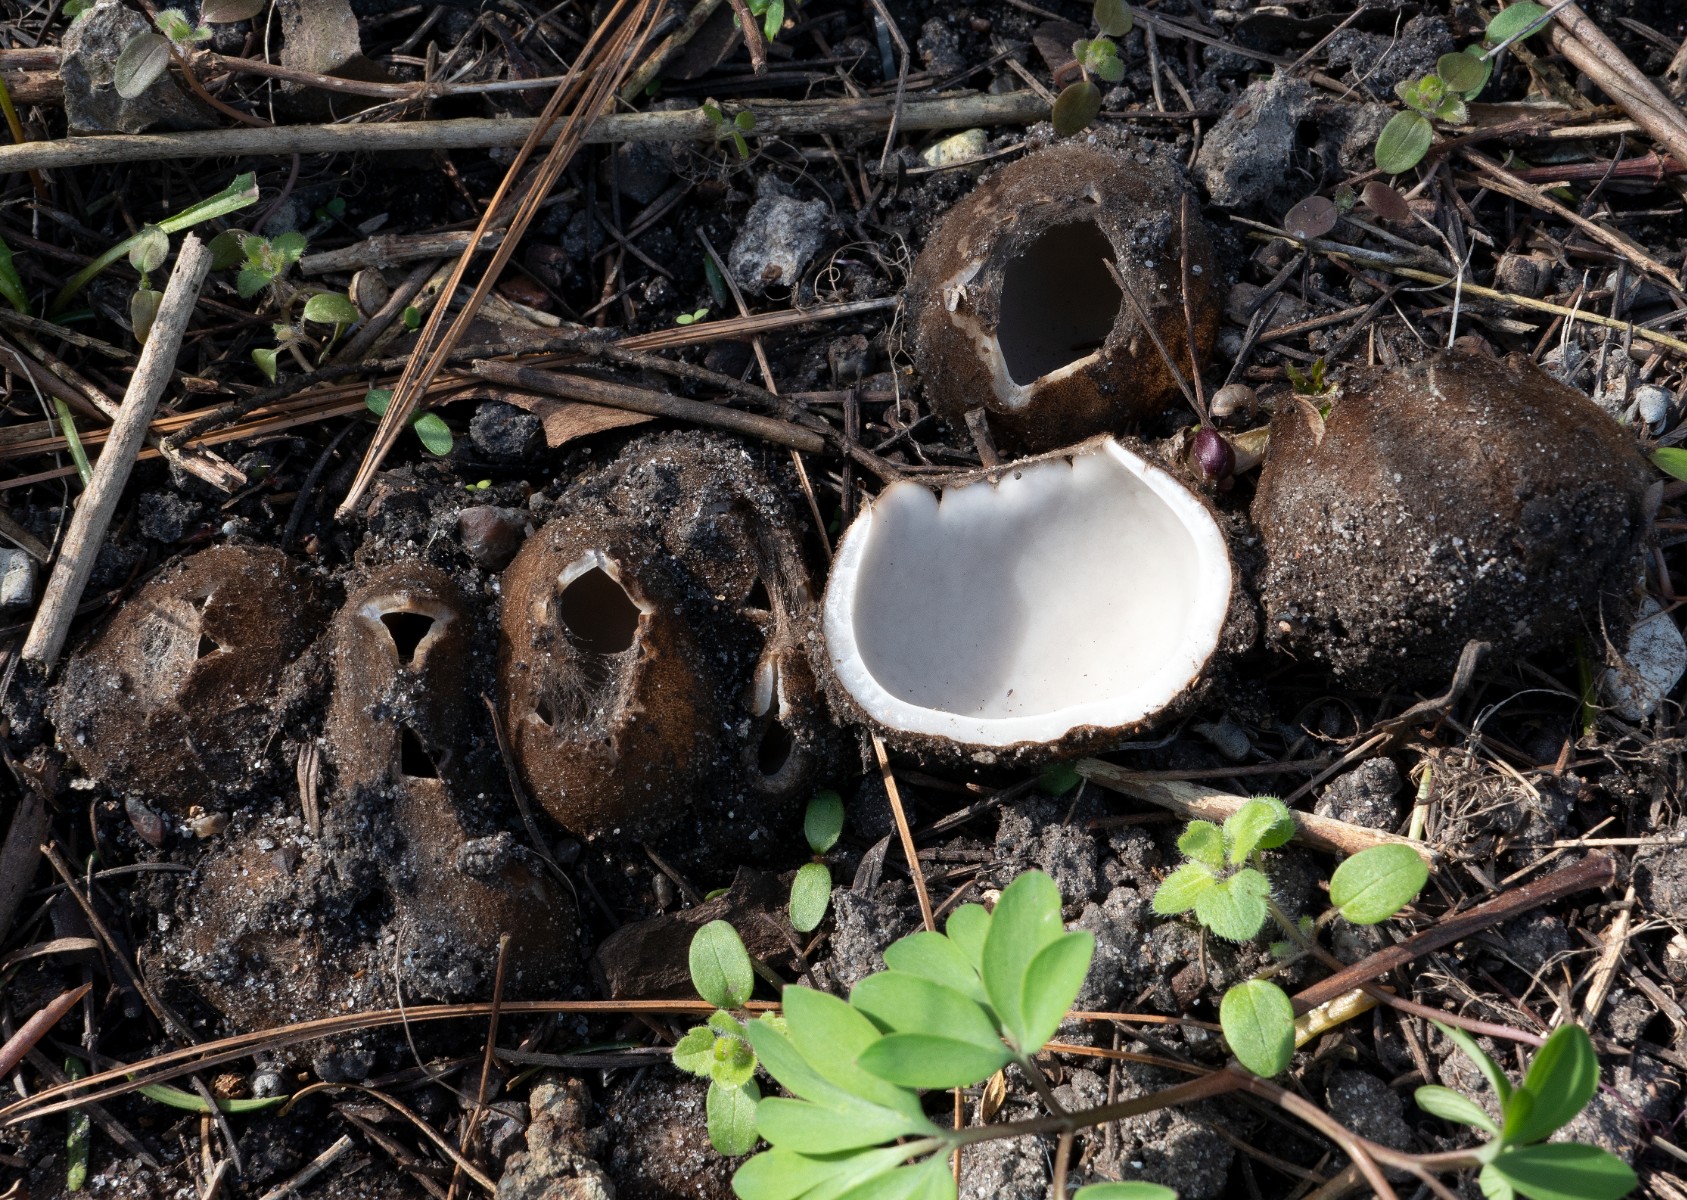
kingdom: Fungi
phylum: Ascomycota
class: Pezizomycetes
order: Pezizales
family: Pyronemataceae
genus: Geopora
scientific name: Geopora sumneriana
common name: vår-jordbæger
